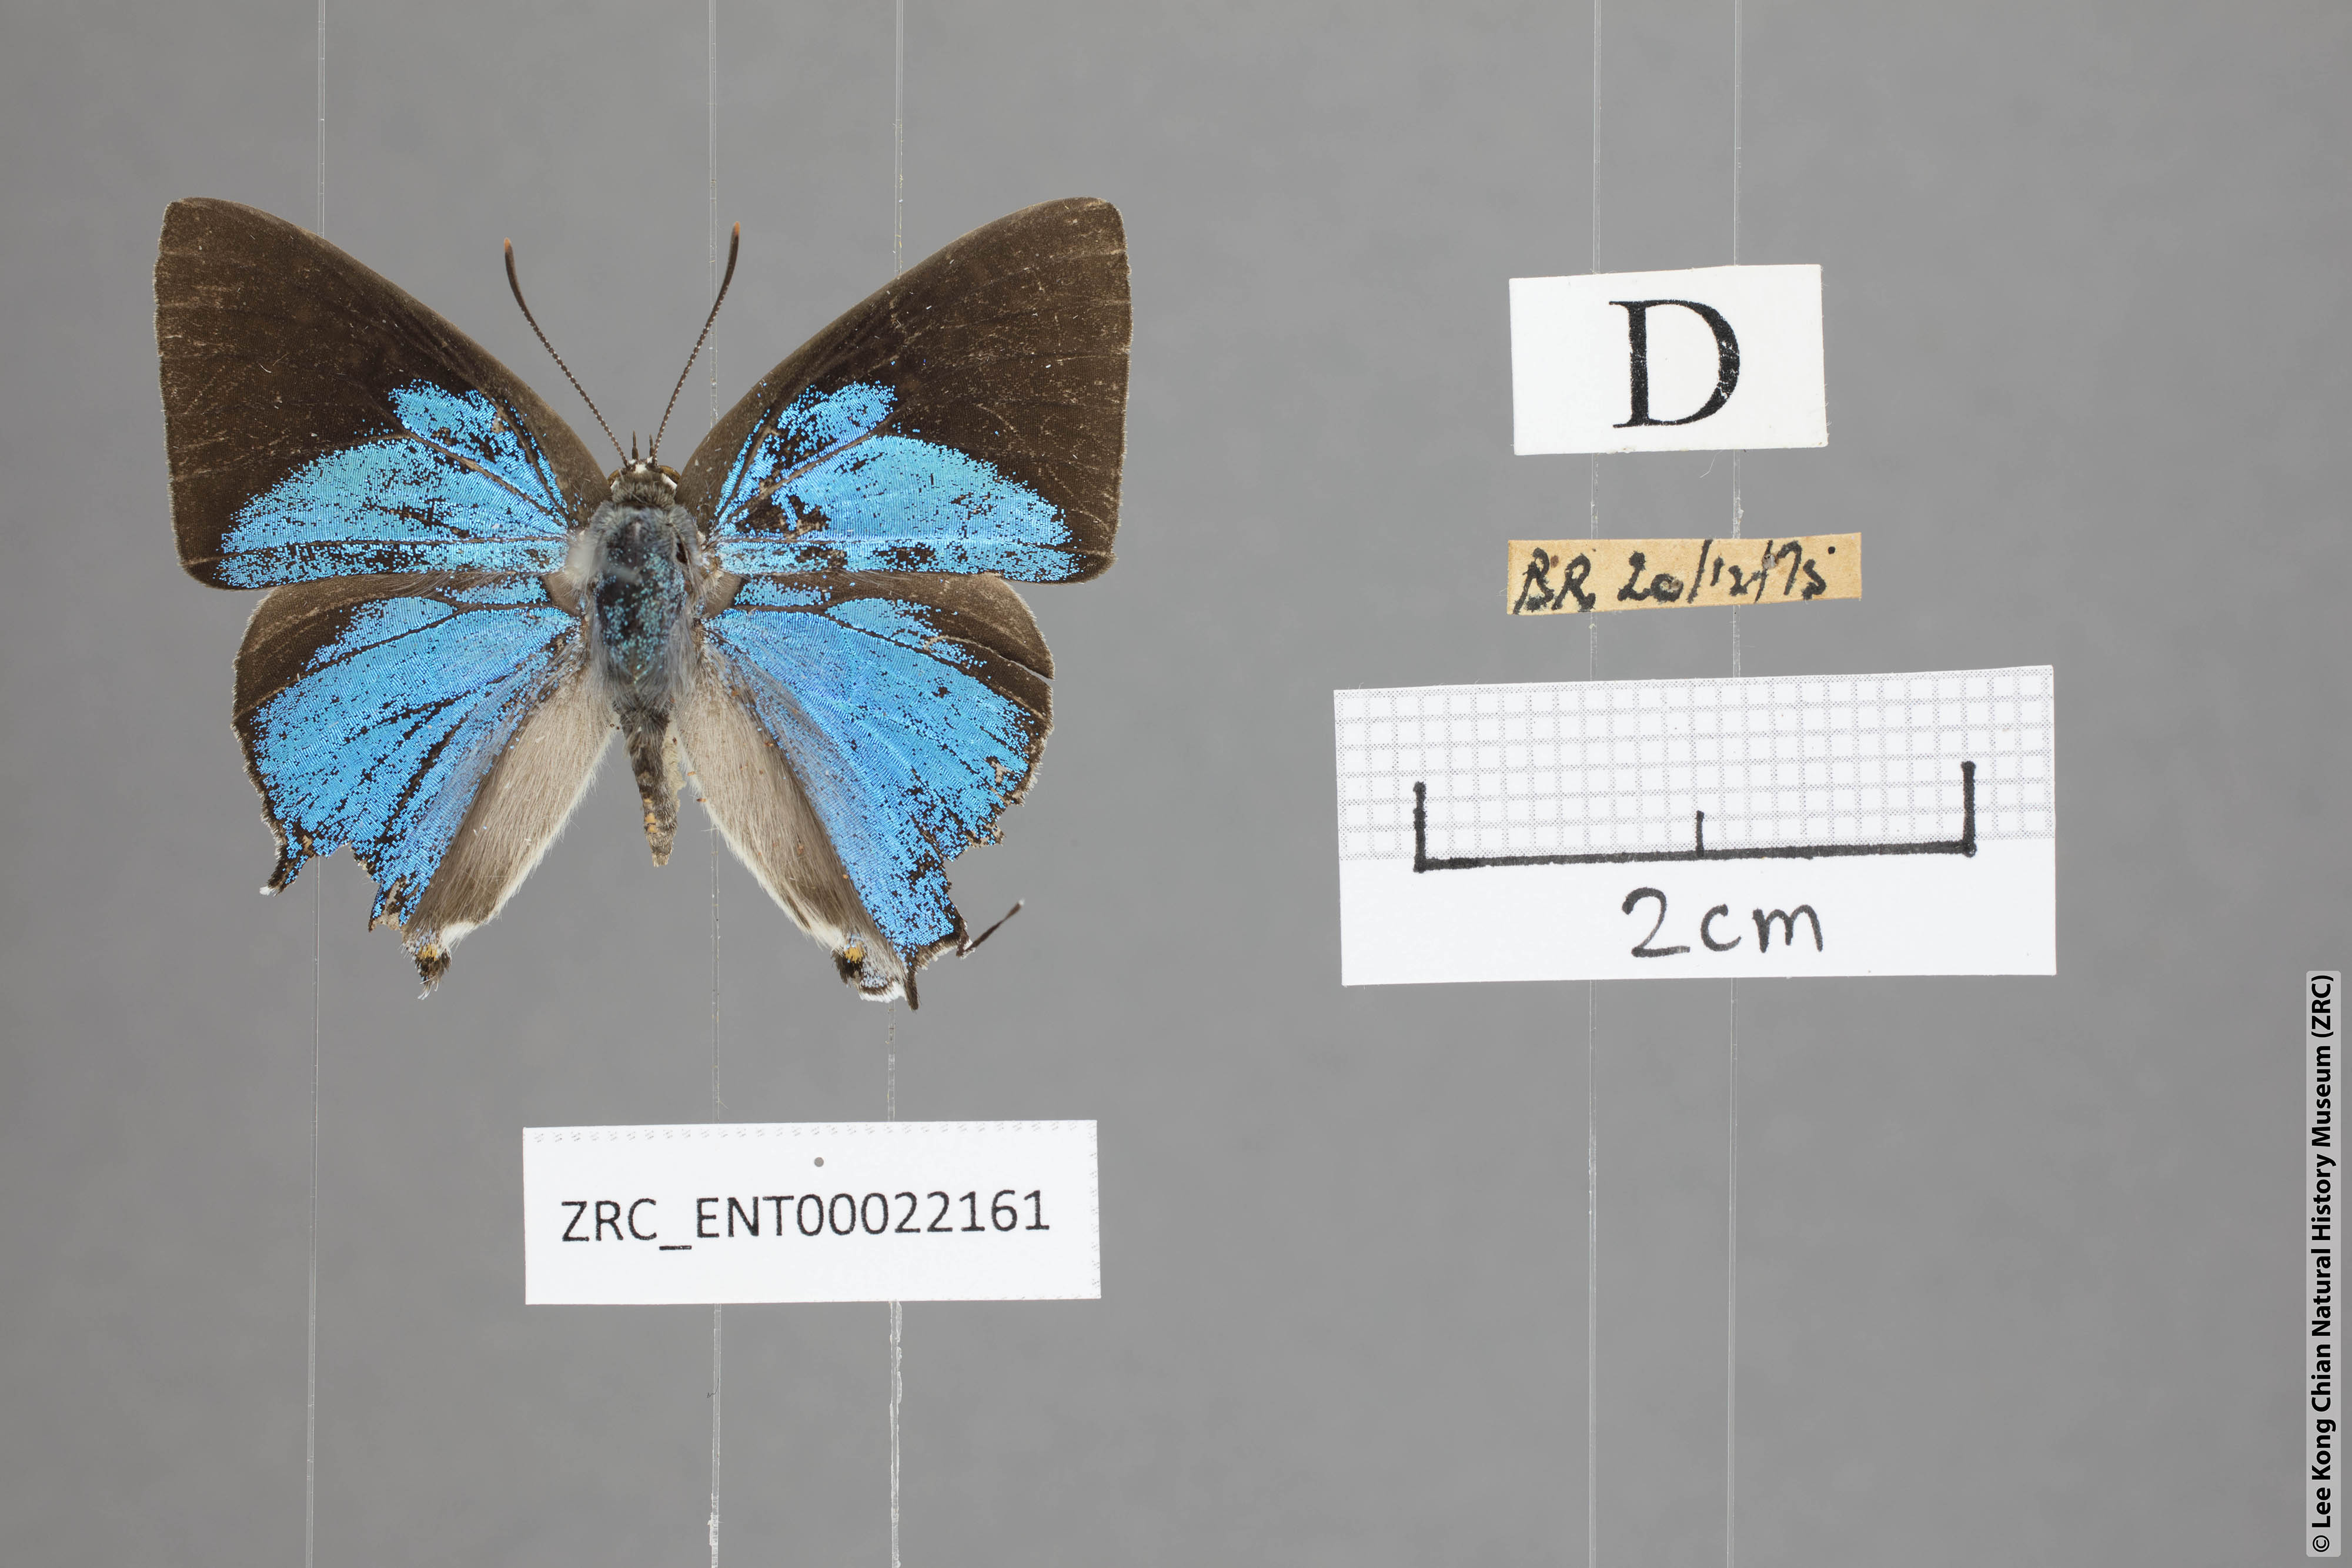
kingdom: Animalia
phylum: Arthropoda
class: Insecta
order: Lepidoptera
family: Lycaenidae
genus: Tajuria
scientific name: Tajuria cippus
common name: Peacock royal
